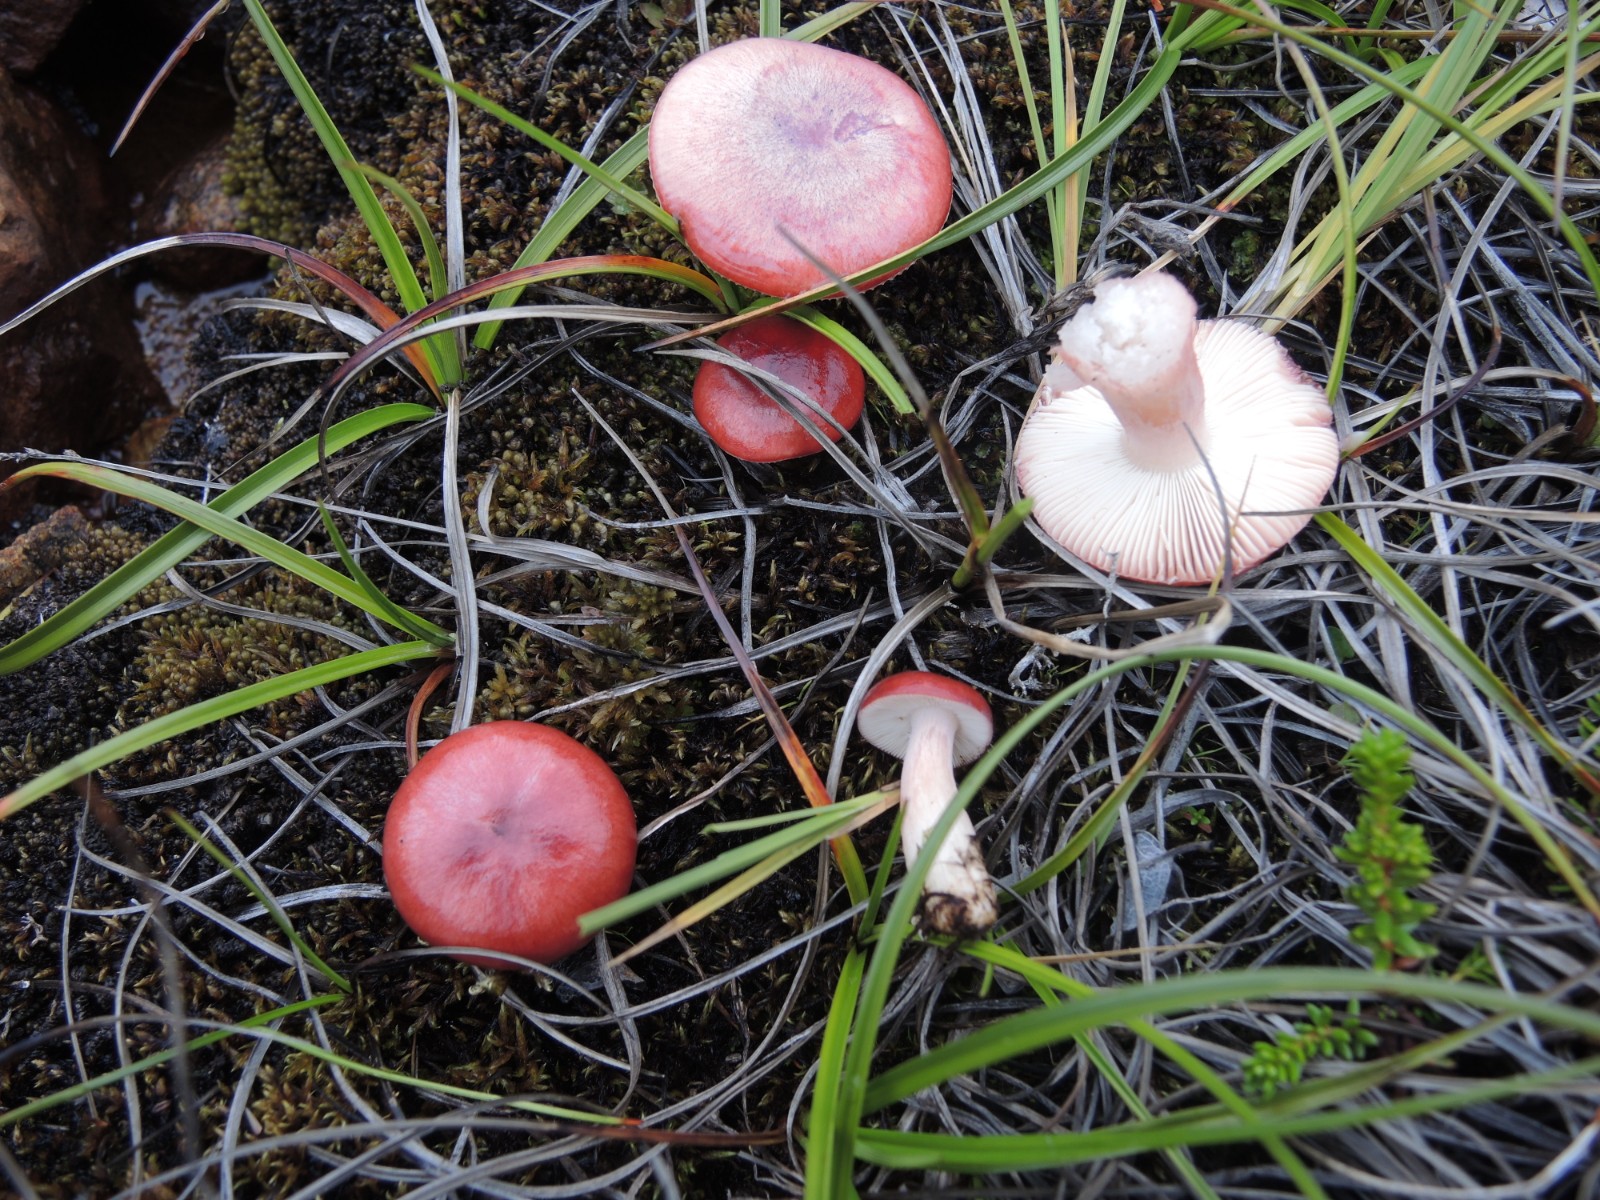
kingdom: Fungi
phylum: Basidiomycota
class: Agaricomycetes
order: Russulales
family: Russulaceae
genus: Russula
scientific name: Russula gracillima
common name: Slender brittlegill
